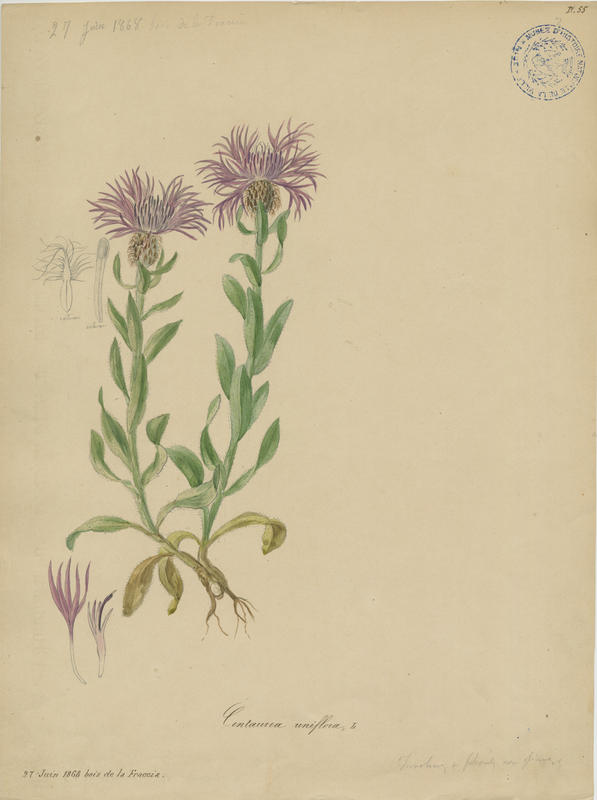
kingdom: Plantae
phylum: Tracheophyta
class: Magnoliopsida
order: Asterales
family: Asteraceae
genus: Centaurea
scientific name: Centaurea uniflora
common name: Singleflower knapweed
